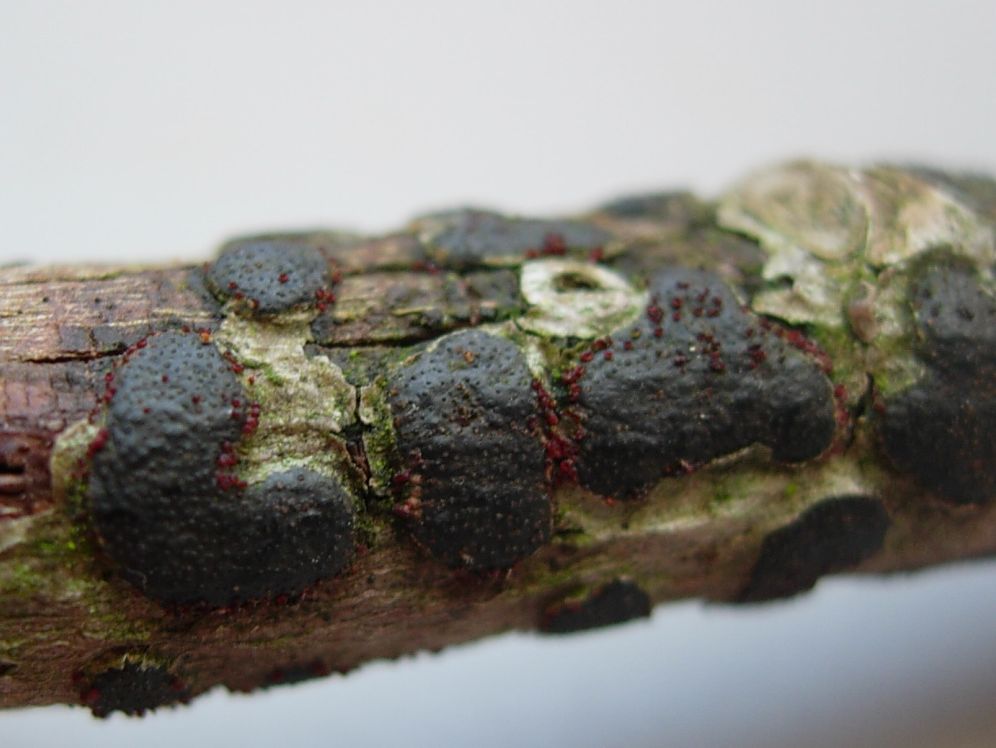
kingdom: Fungi
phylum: Ascomycota
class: Sordariomycetes
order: Hypocreales
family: Nectriaceae
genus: Dialonectria
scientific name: Dialonectria episphaeria
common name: kulskorpe-cinnobersvamp
